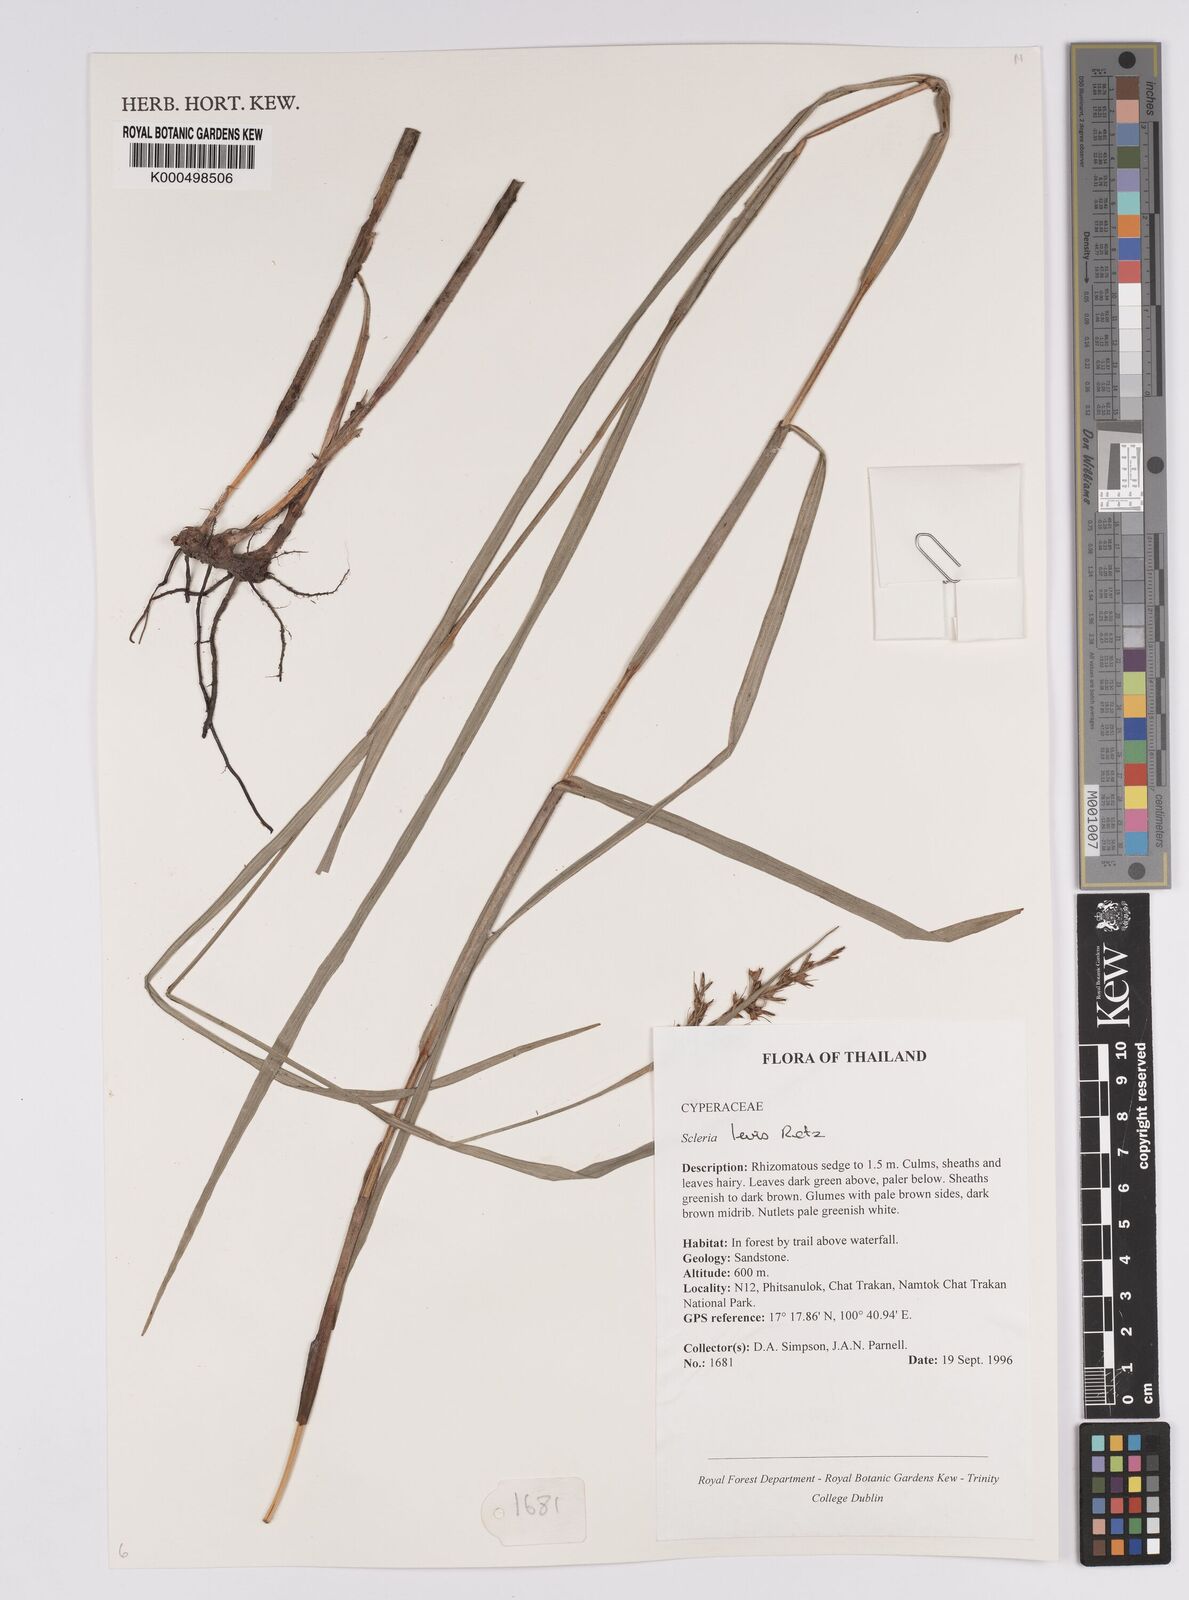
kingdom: Plantae
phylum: Tracheophyta
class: Liliopsida
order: Poales
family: Cyperaceae
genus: Scleria
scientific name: Scleria levis
